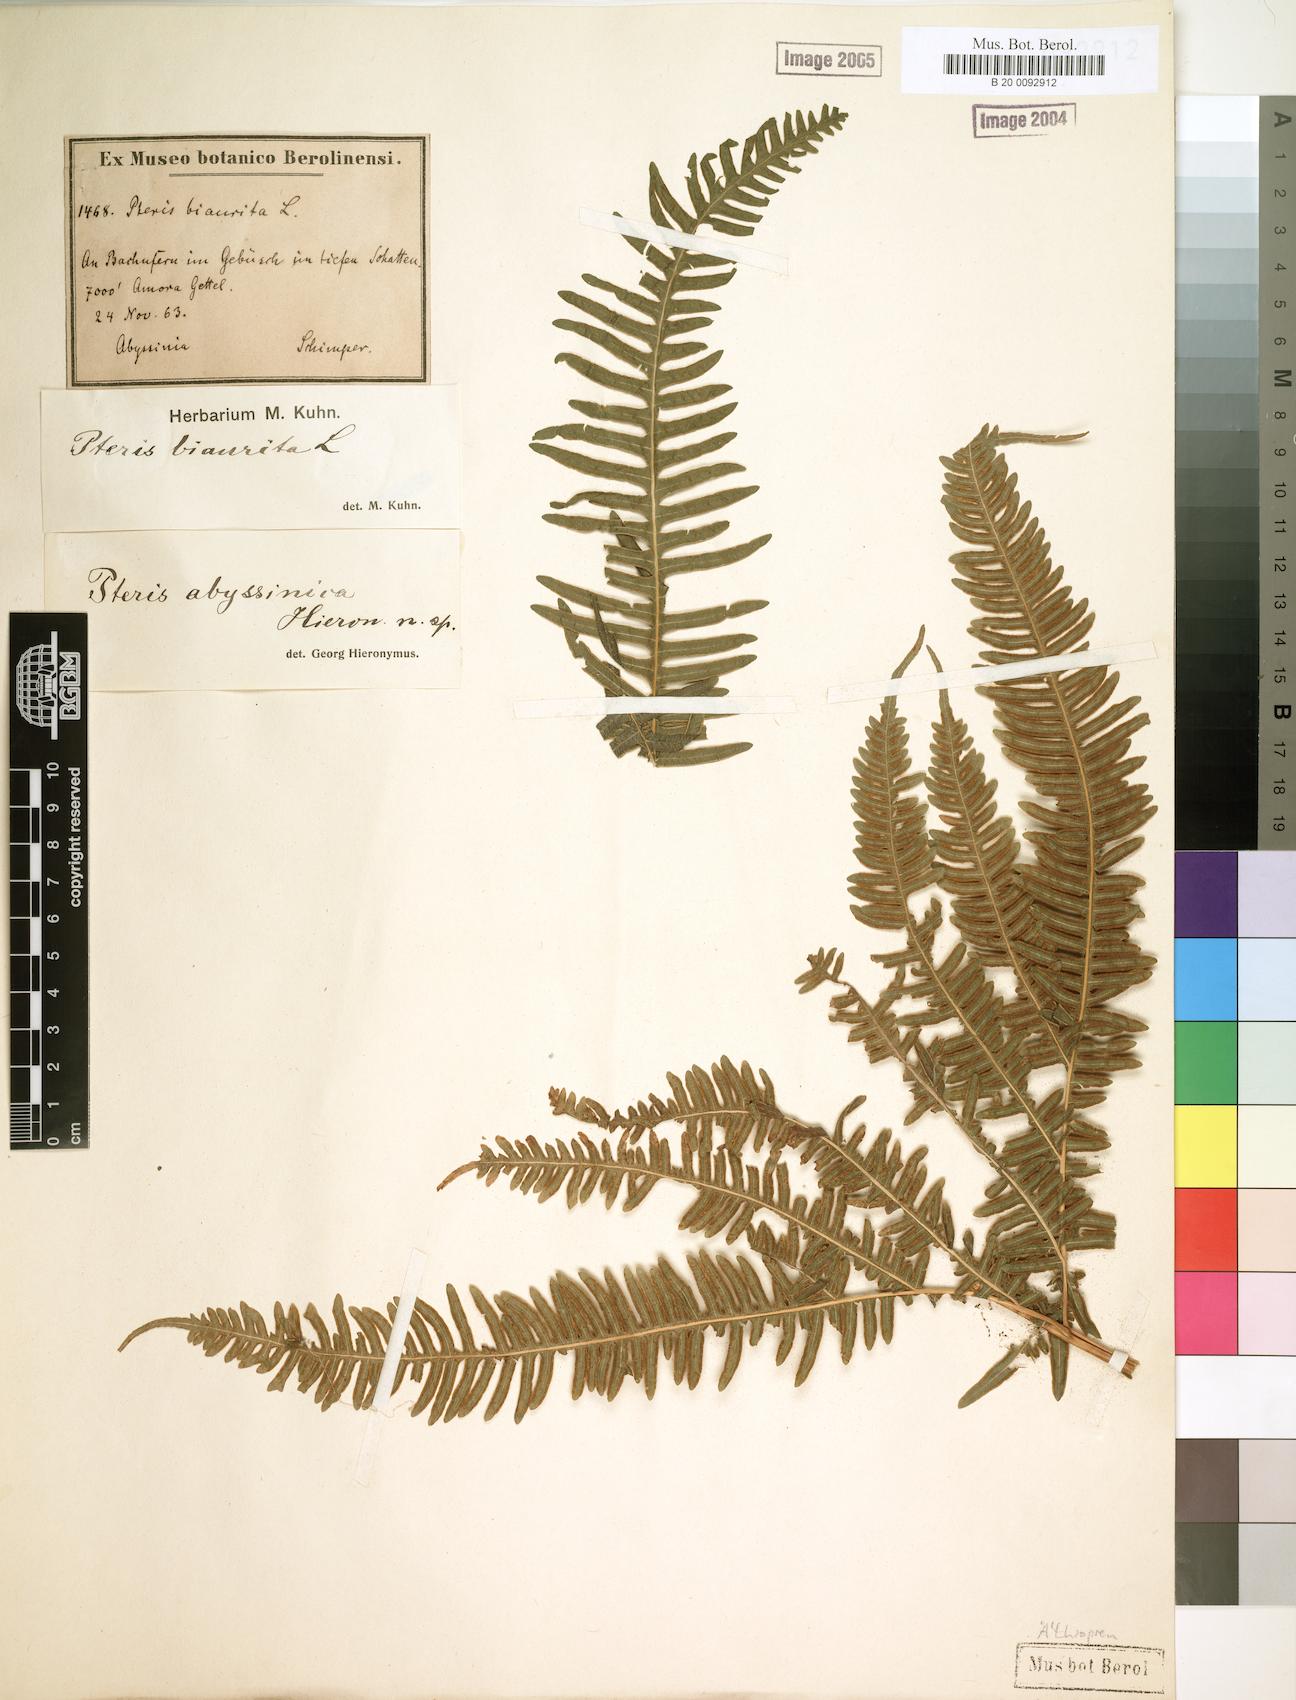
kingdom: Plantae
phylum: Tracheophyta
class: Polypodiopsida
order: Polypodiales
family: Pteridaceae
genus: Pteris
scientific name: Pteris catoptera
